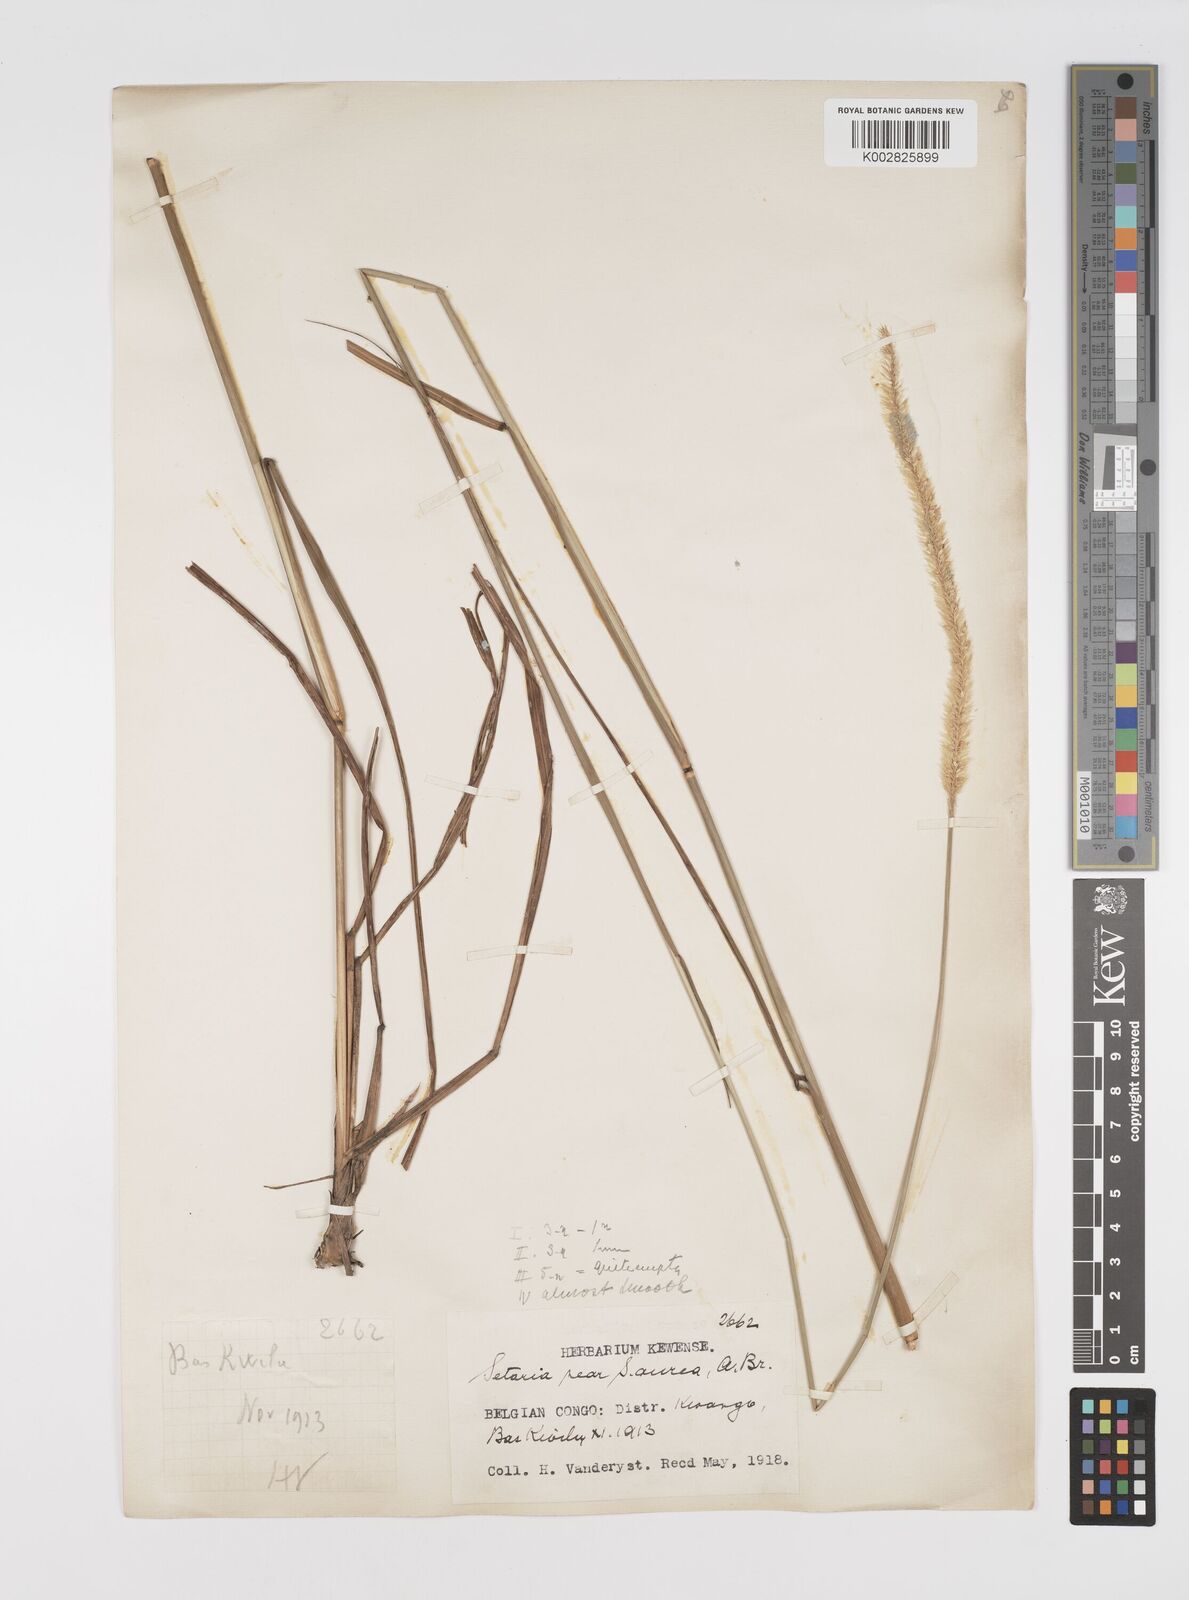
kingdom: Plantae
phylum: Tracheophyta
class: Liliopsida
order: Poales
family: Poaceae
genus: Setaria
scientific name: Setaria restioidea
